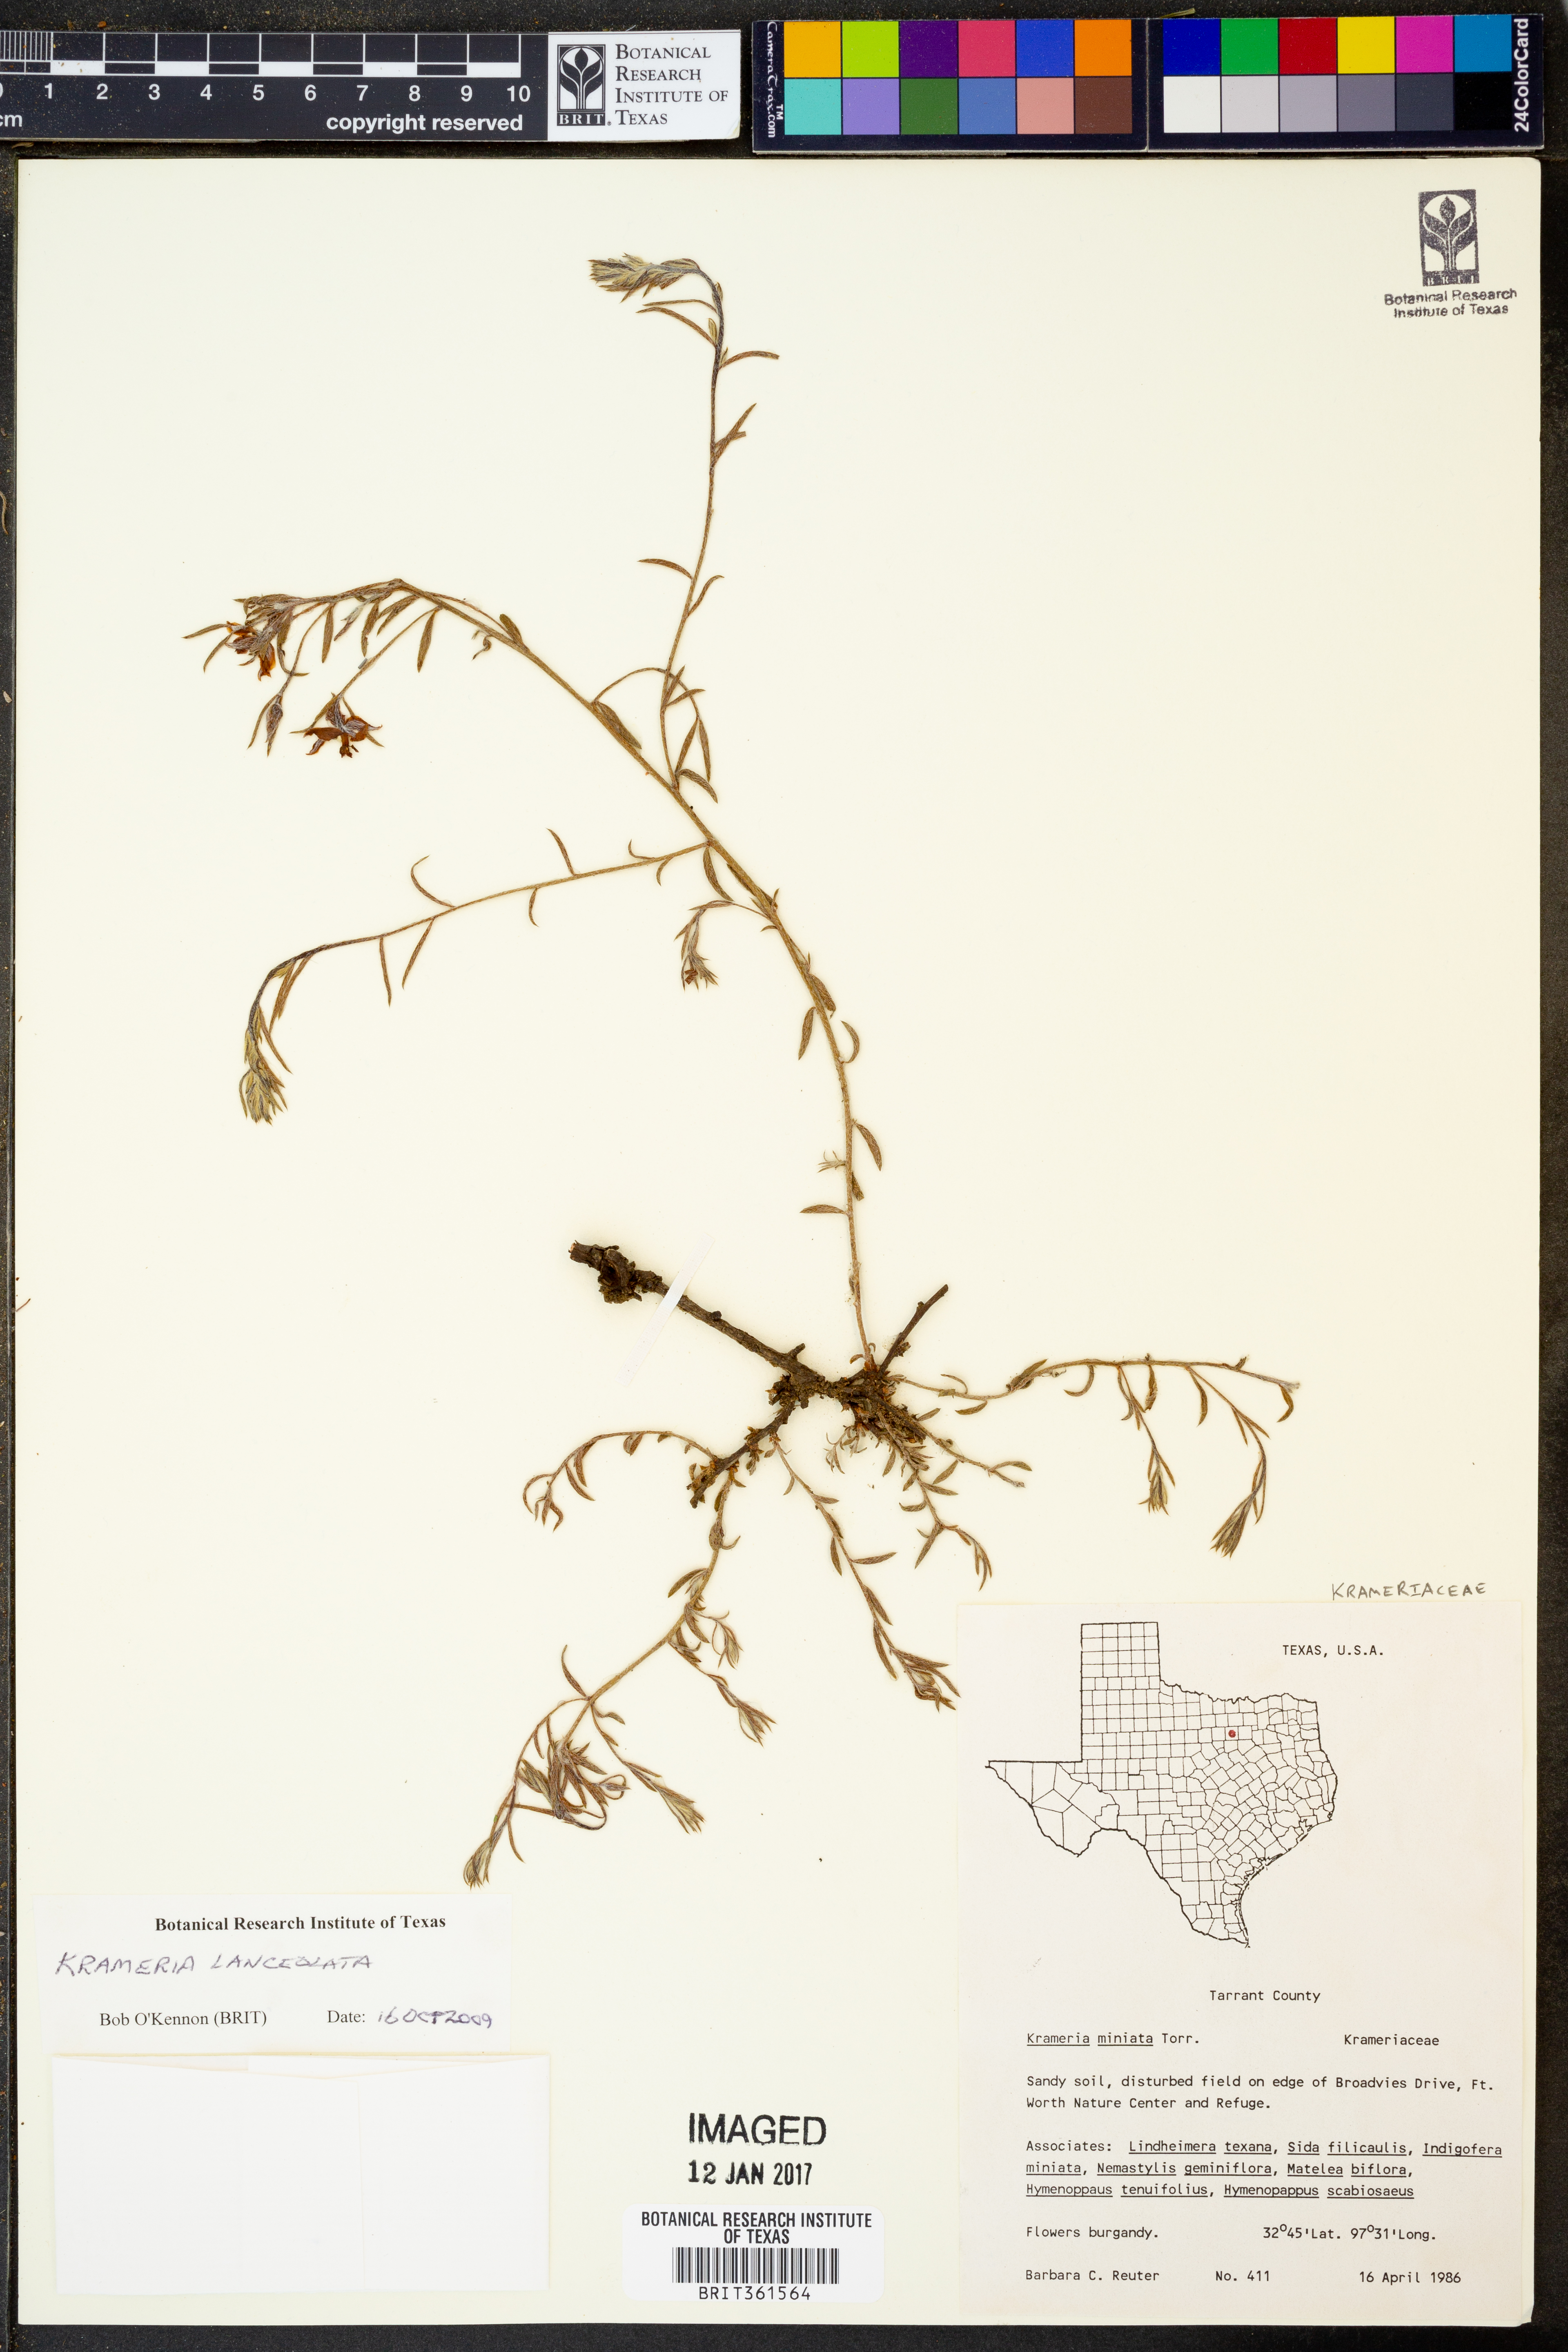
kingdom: Plantae
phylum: Tracheophyta
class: Magnoliopsida
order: Zygophyllales
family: Krameriaceae
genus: Krameria
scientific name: Krameria lanceolata
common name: Ratany
